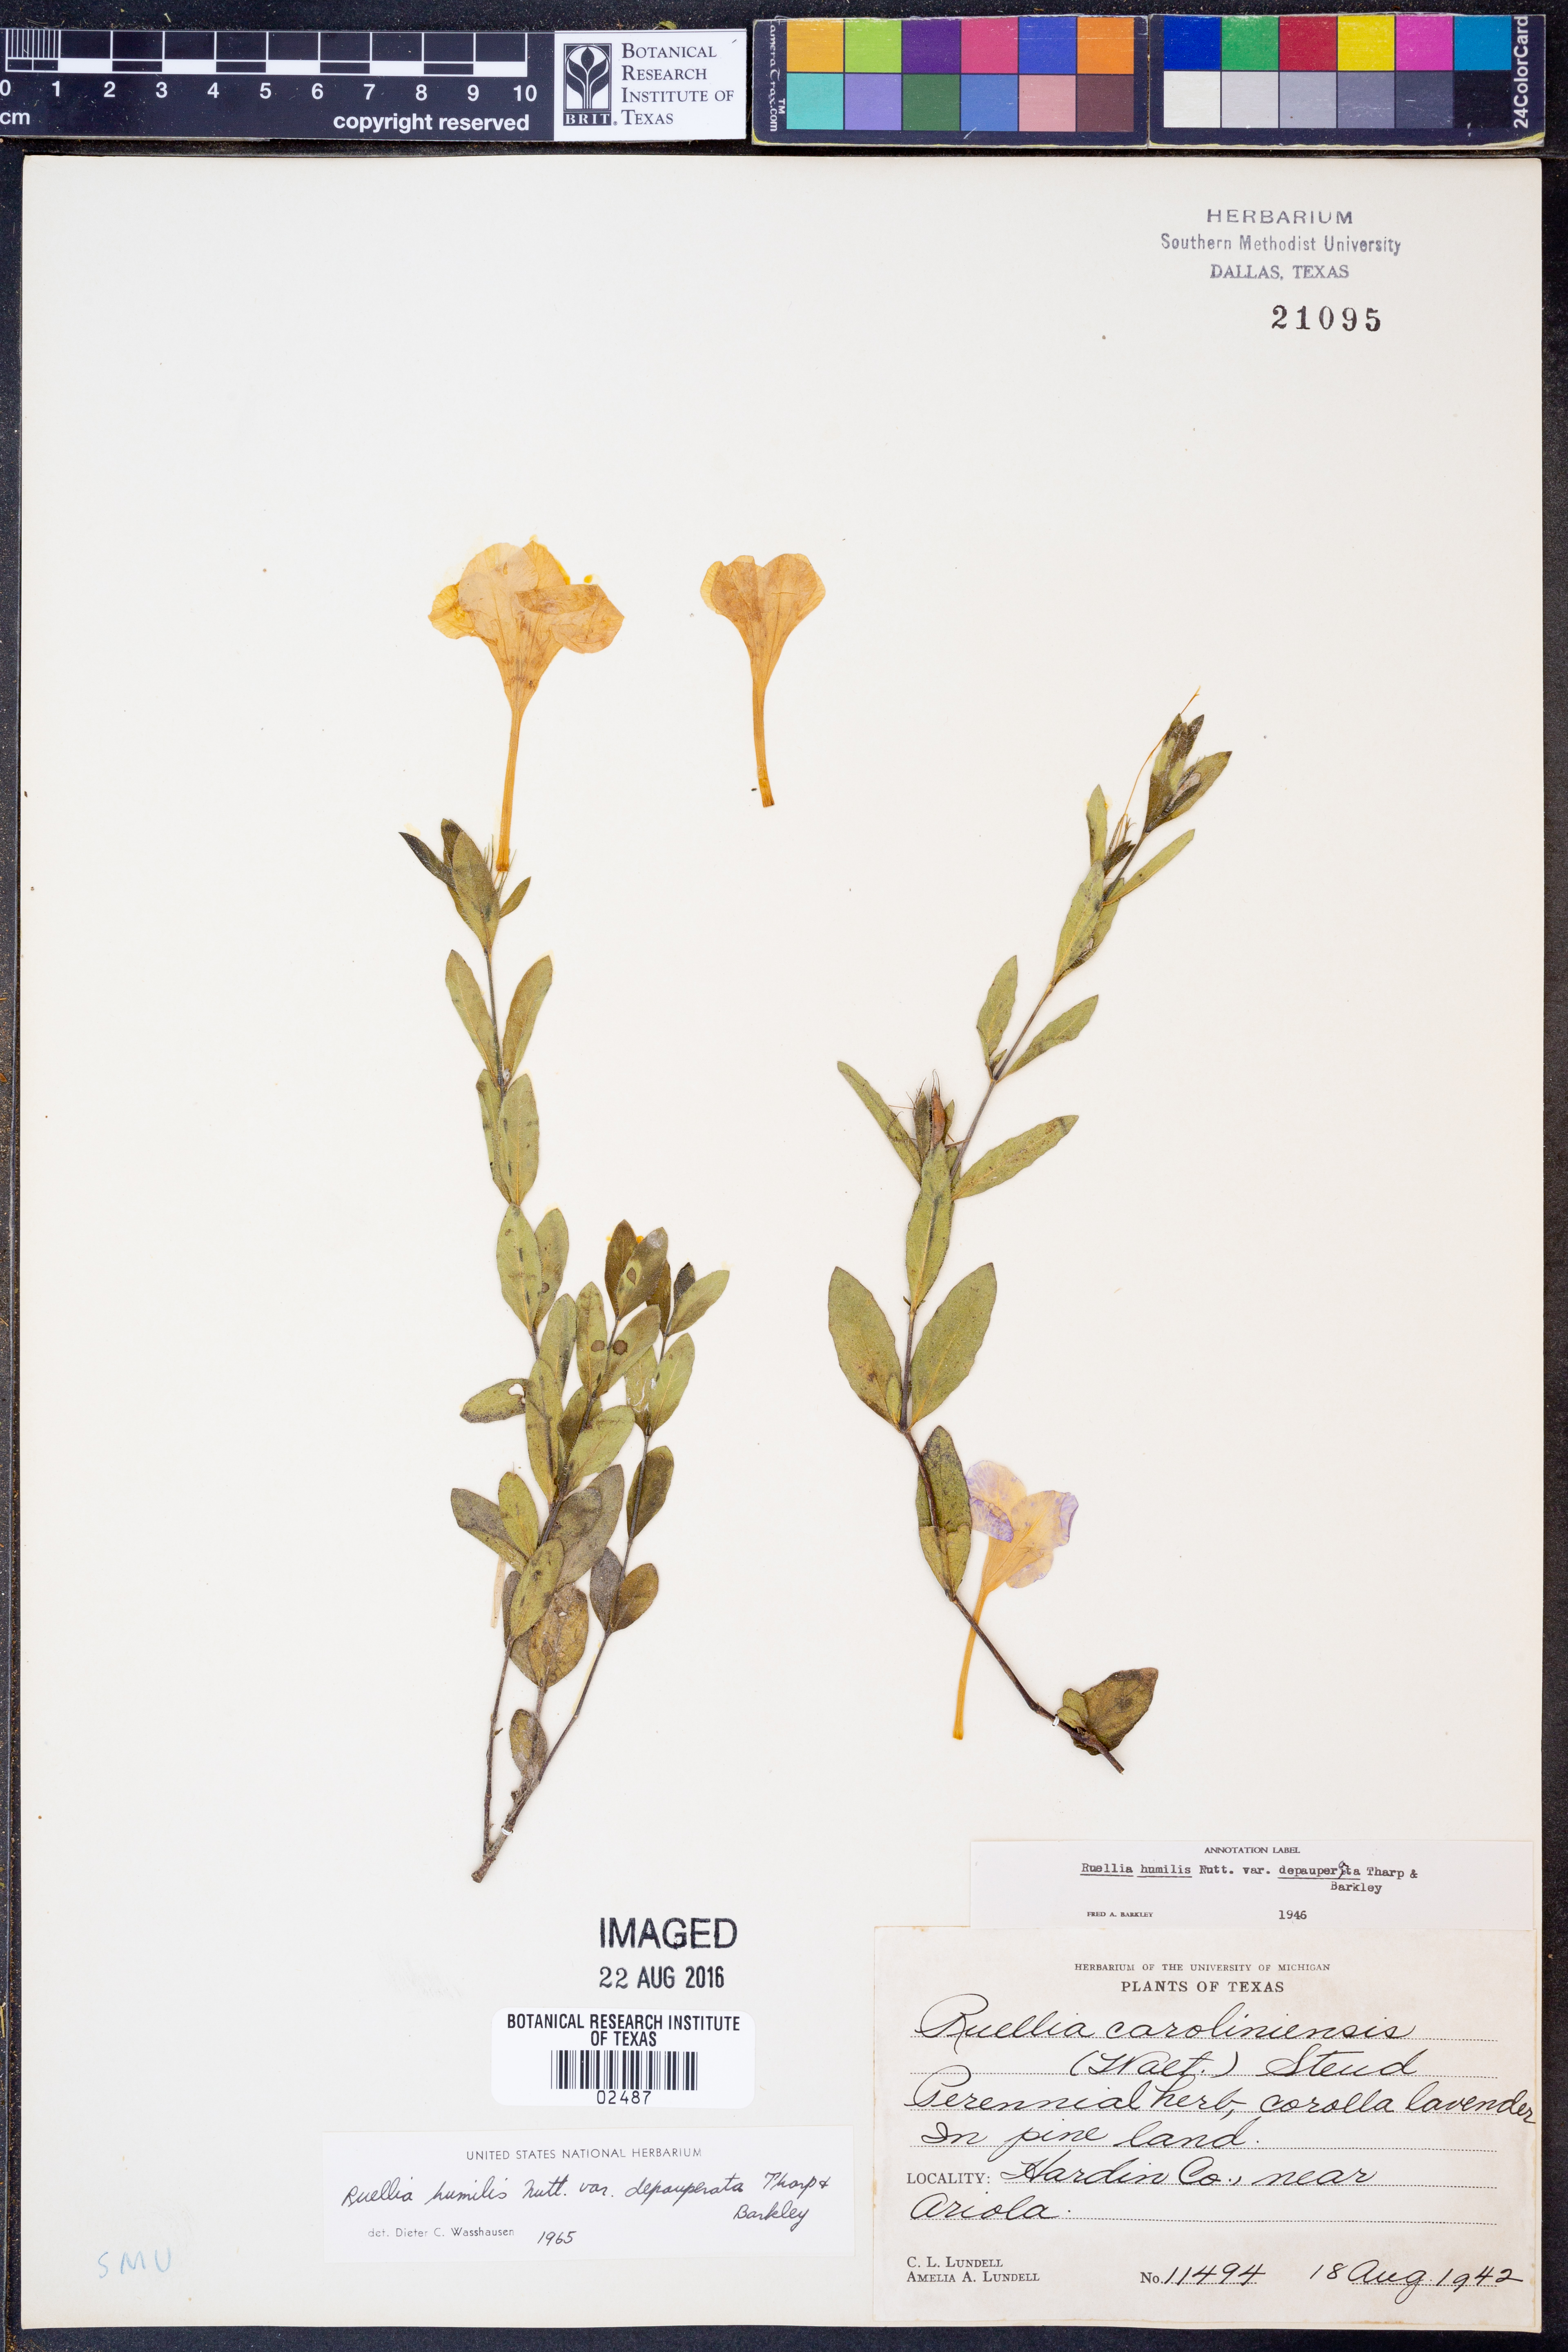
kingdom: Plantae
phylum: Tracheophyta
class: Magnoliopsida
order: Lamiales
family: Acanthaceae
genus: Ruellia
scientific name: Ruellia humilis
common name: Fringe-leaf ruellia
